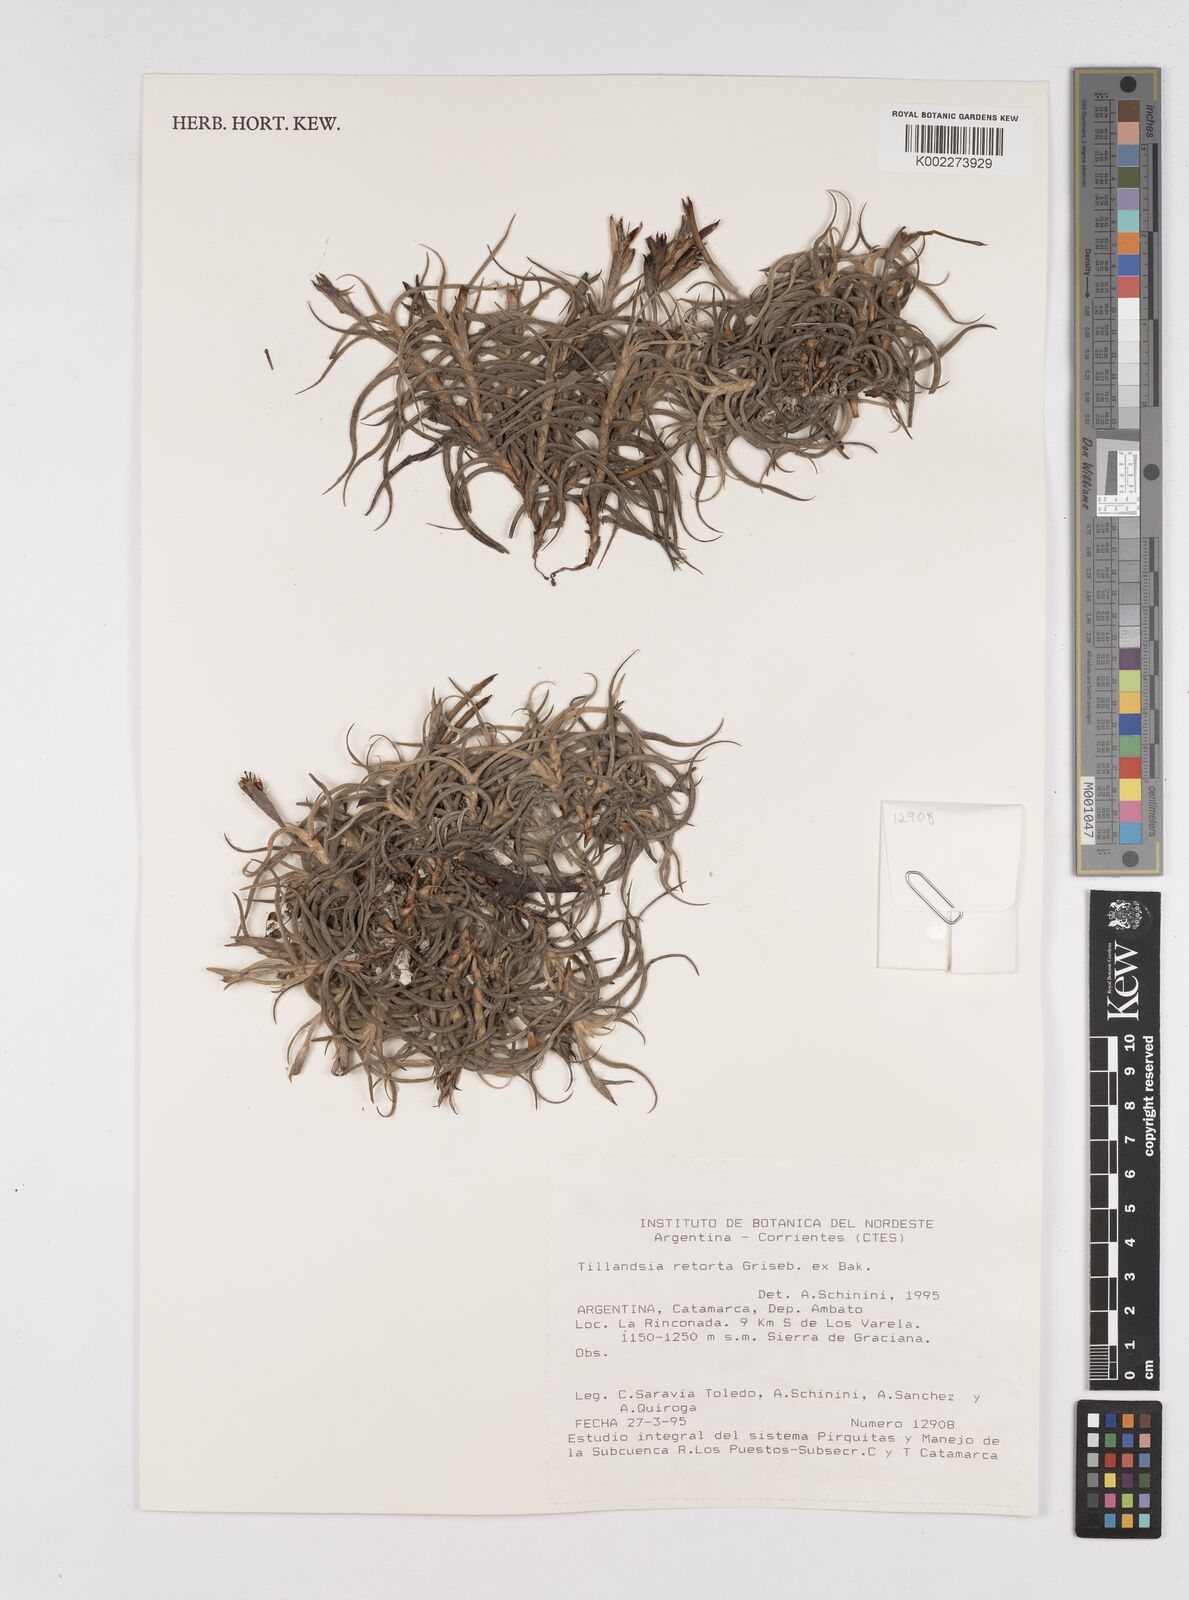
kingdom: Plantae
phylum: Tracheophyta
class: Liliopsida
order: Poales
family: Bromeliaceae
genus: Tillandsia
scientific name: Tillandsia retorta
